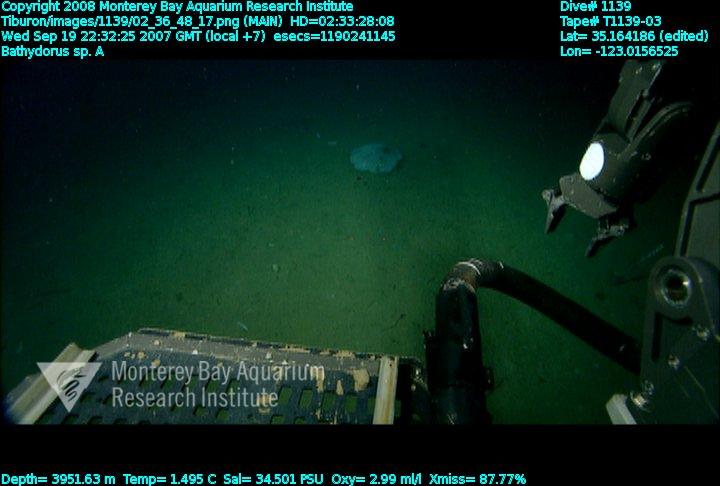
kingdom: Animalia
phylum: Porifera
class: Hexactinellida
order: Lyssacinosida
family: Rossellidae
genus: Bathydorus
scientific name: Bathydorus laniger
